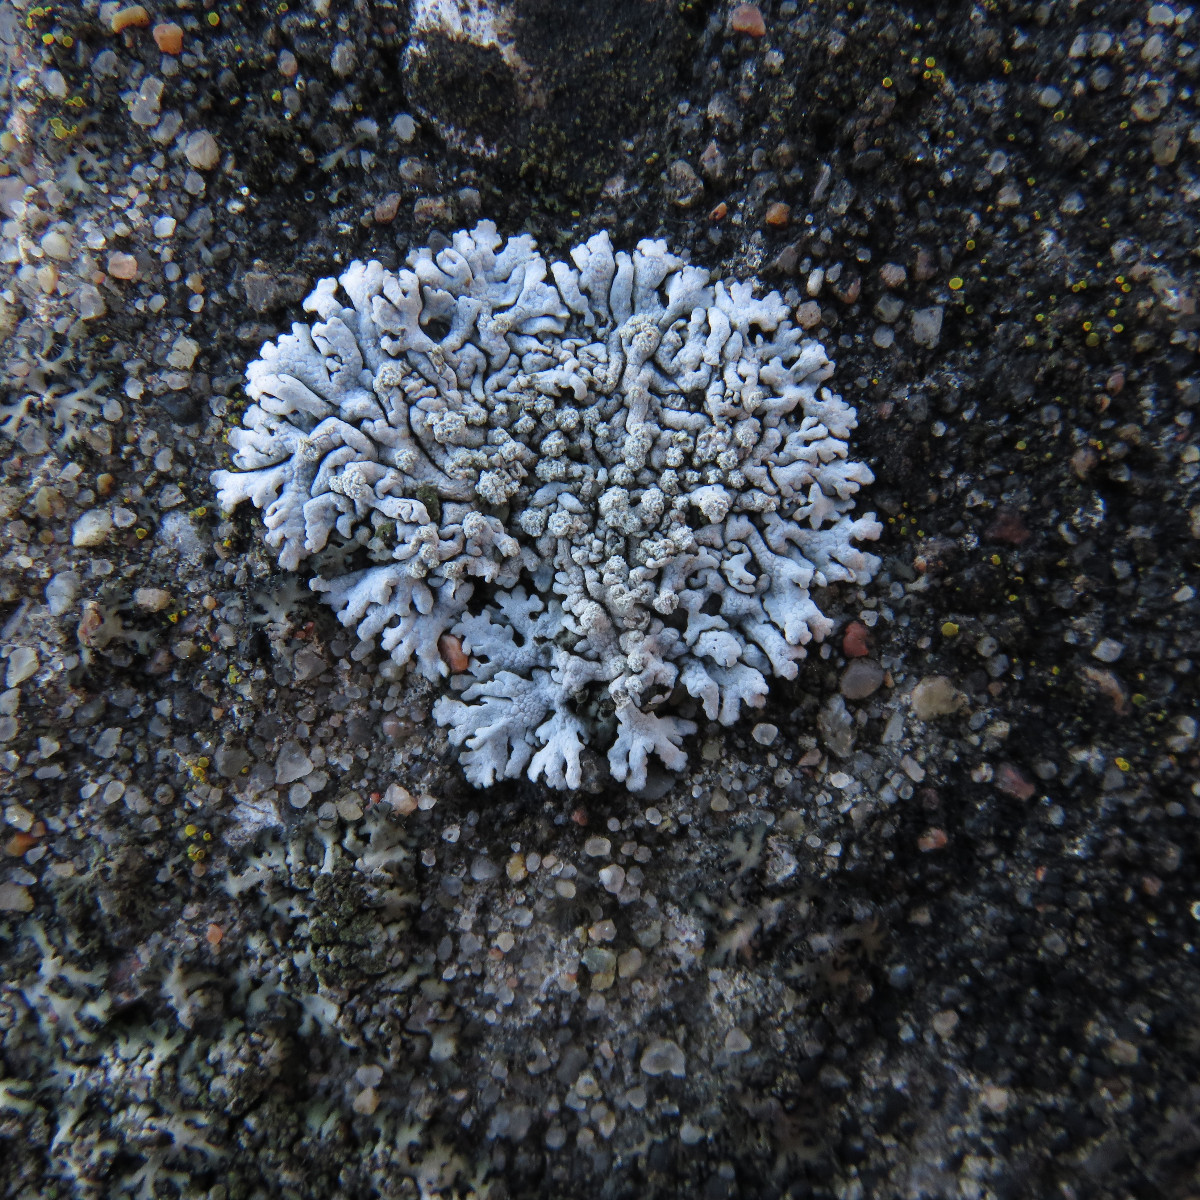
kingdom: Fungi
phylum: Ascomycota
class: Lecanoromycetes
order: Caliciales
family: Physciaceae
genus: Physcia
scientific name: Physcia caesia
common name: blågrå rosetlav
